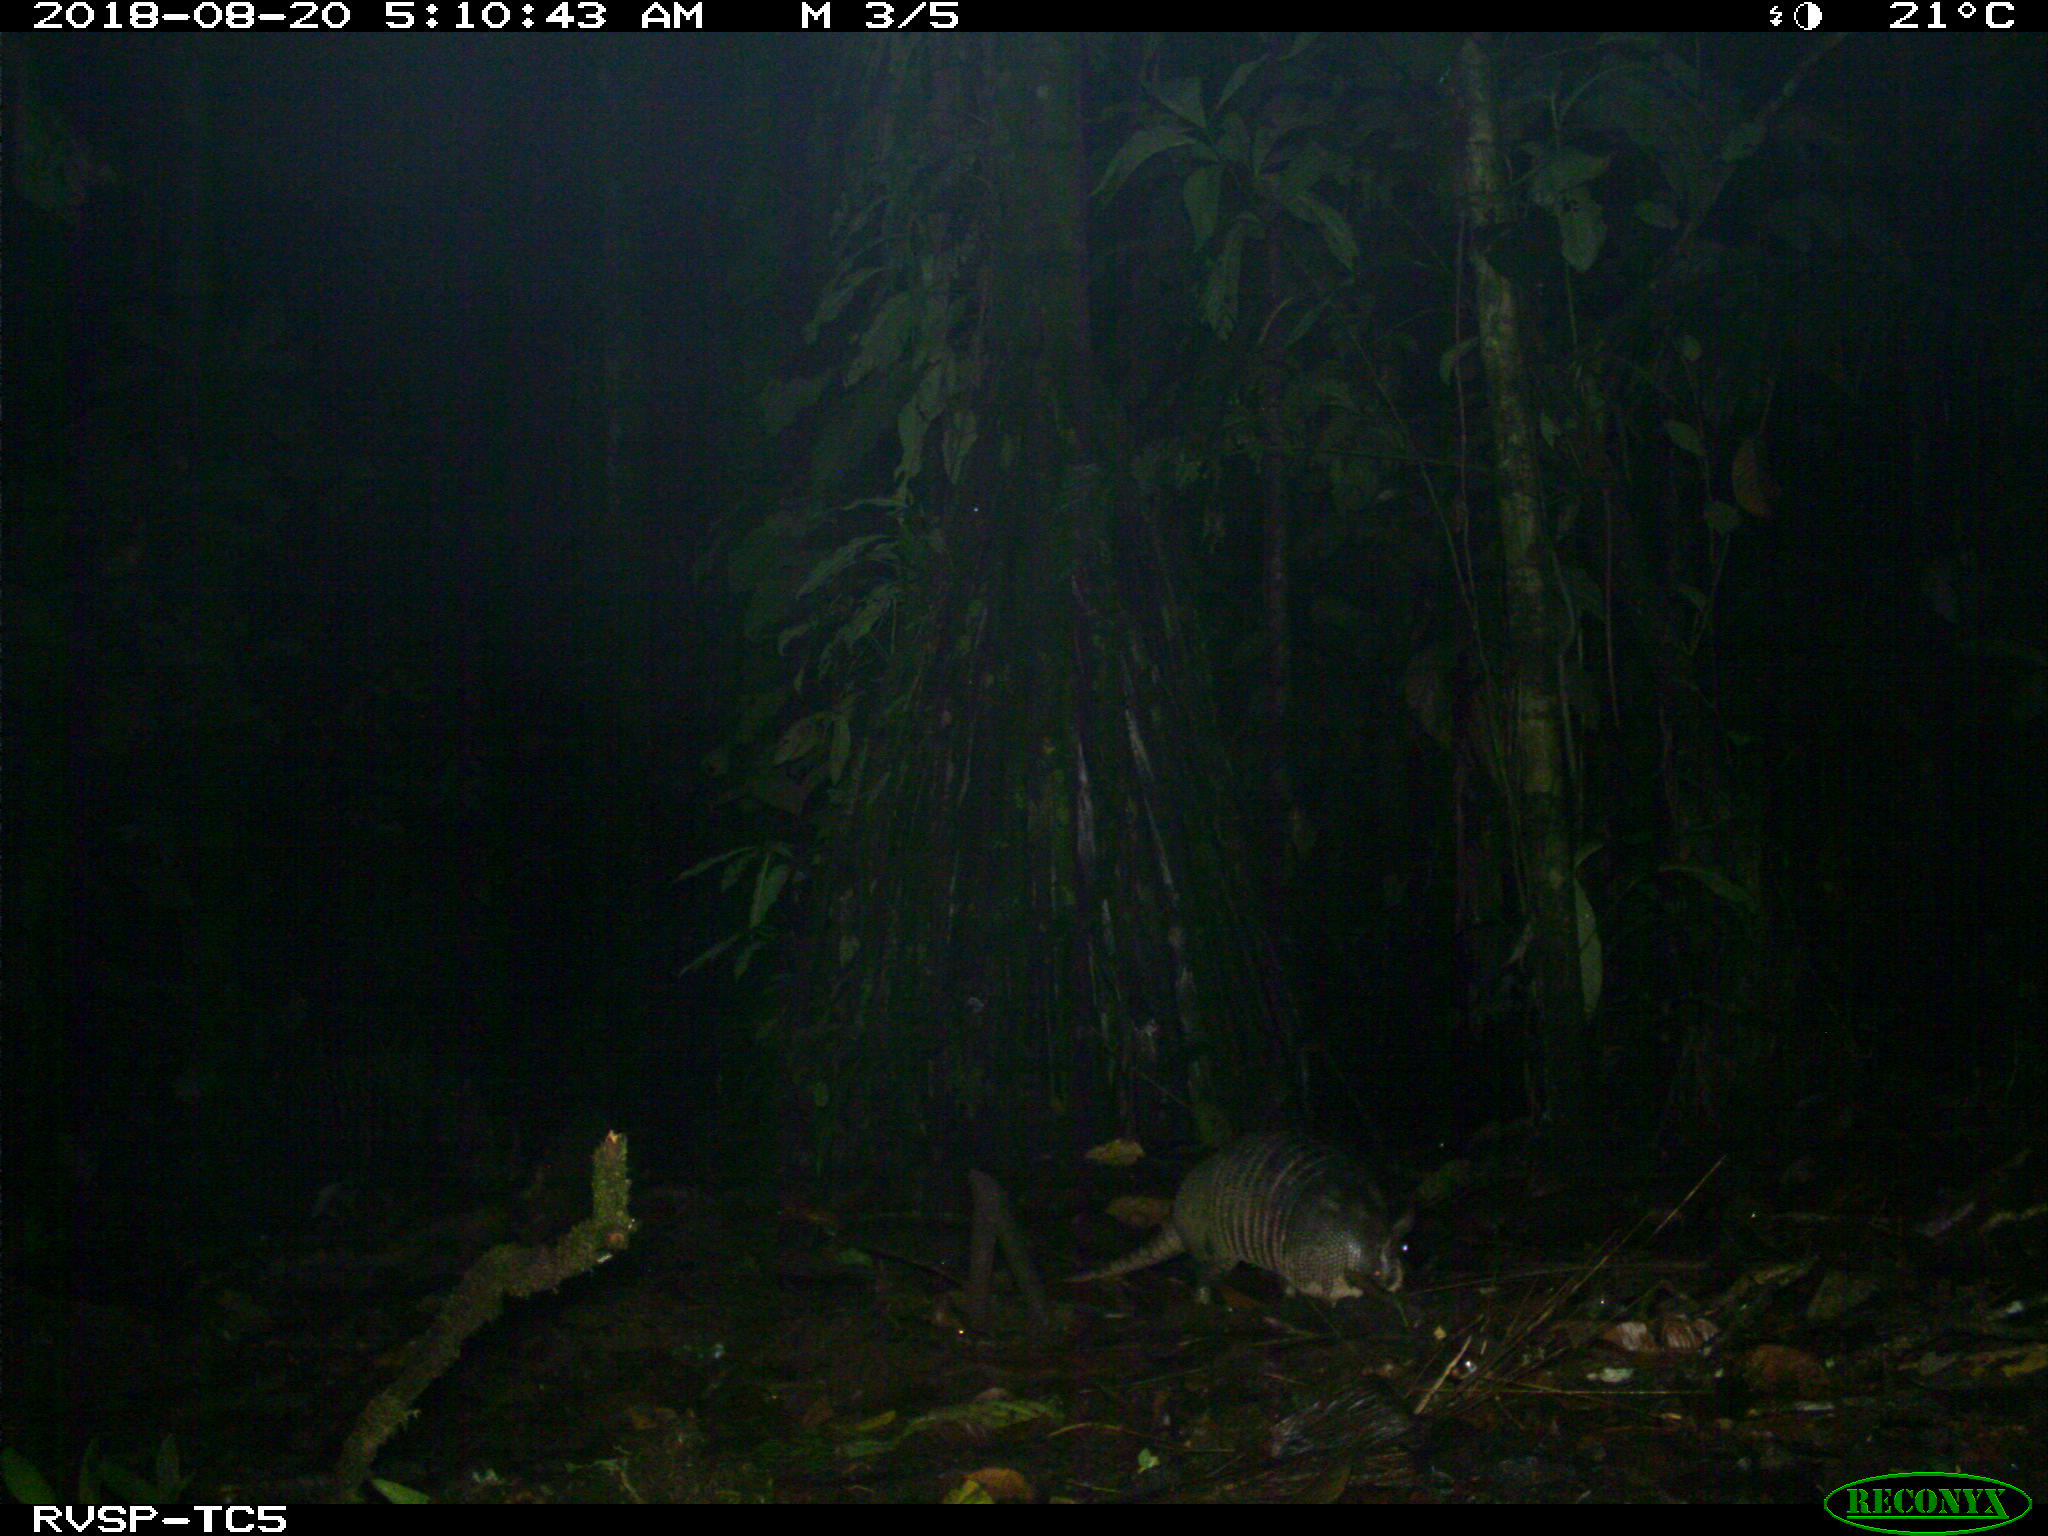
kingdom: Animalia
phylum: Chordata
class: Mammalia
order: Cingulata
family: Dasypodidae
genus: Dasypus
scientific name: Dasypus novemcinctus
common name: Nine-banded armadillo
